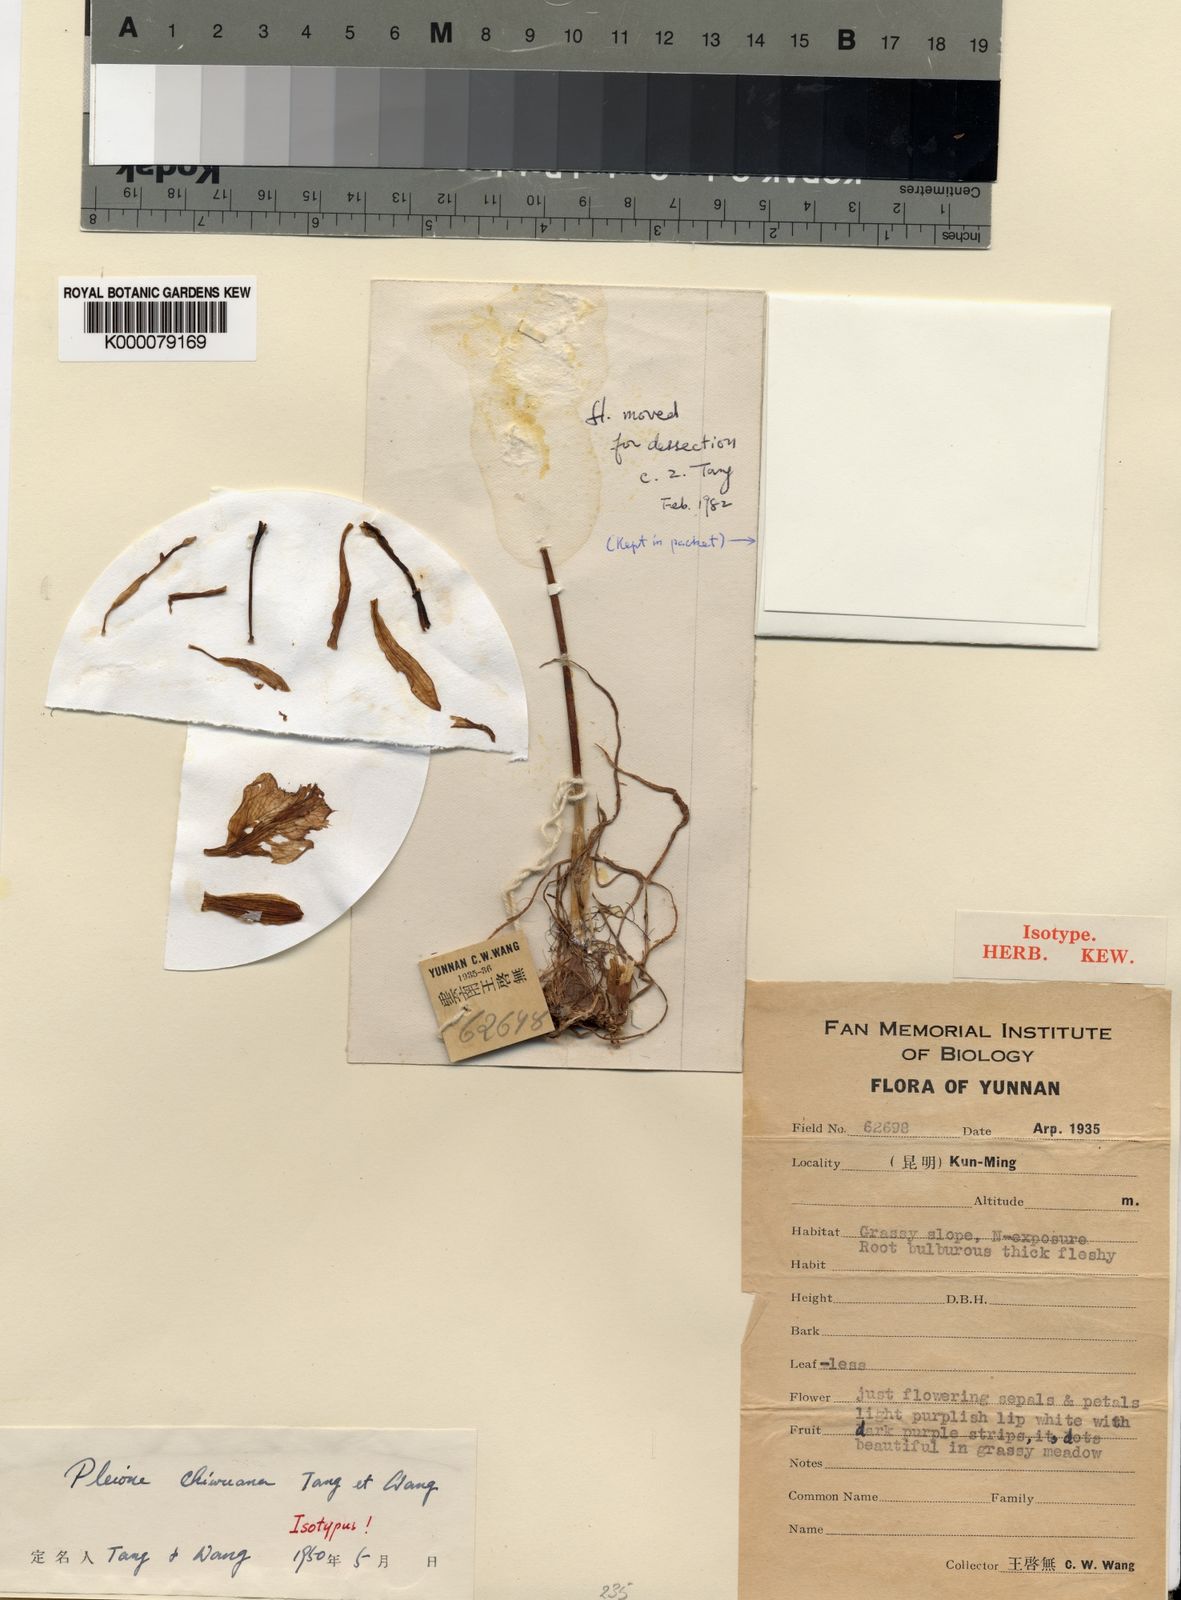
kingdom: Plantae
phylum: Tracheophyta
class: Liliopsida
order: Asparagales
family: Orchidaceae
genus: Pleione
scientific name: Pleione yunnanensis
